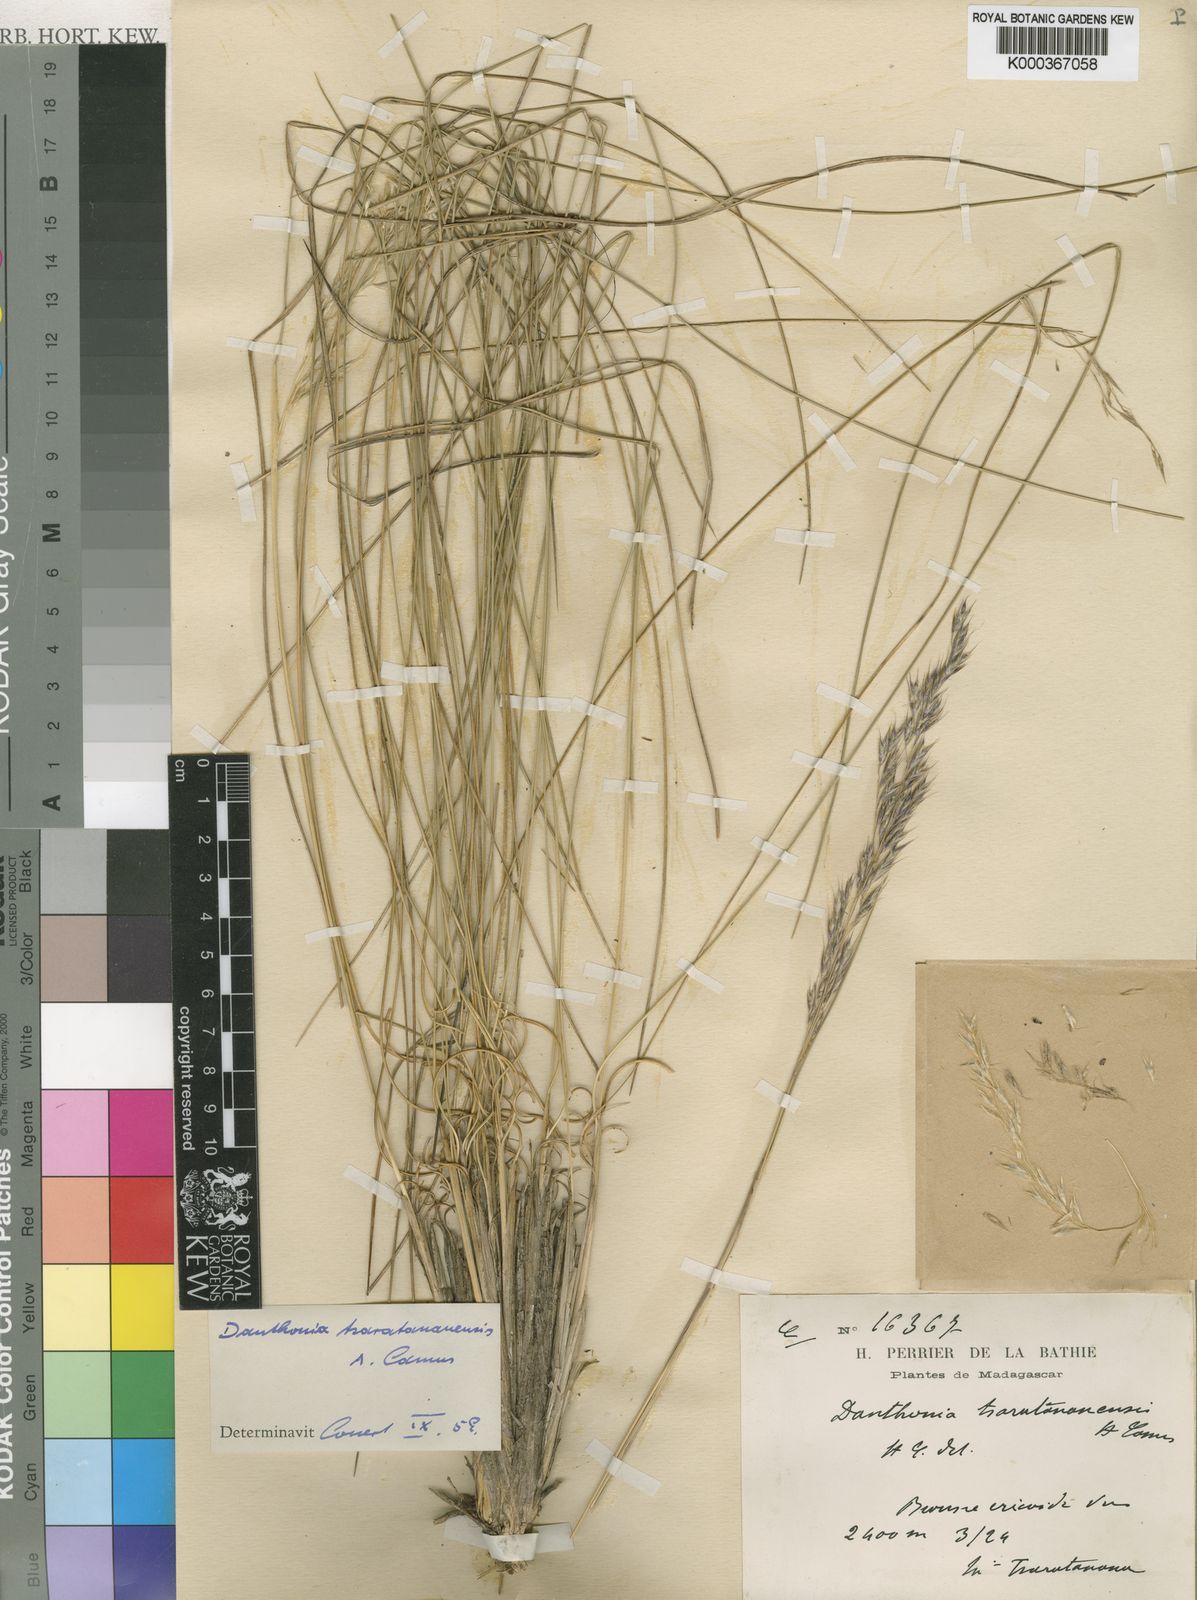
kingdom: Plantae
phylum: Tracheophyta
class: Liliopsida
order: Poales
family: Poaceae
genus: Rytidosperma
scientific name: Rytidosperma
